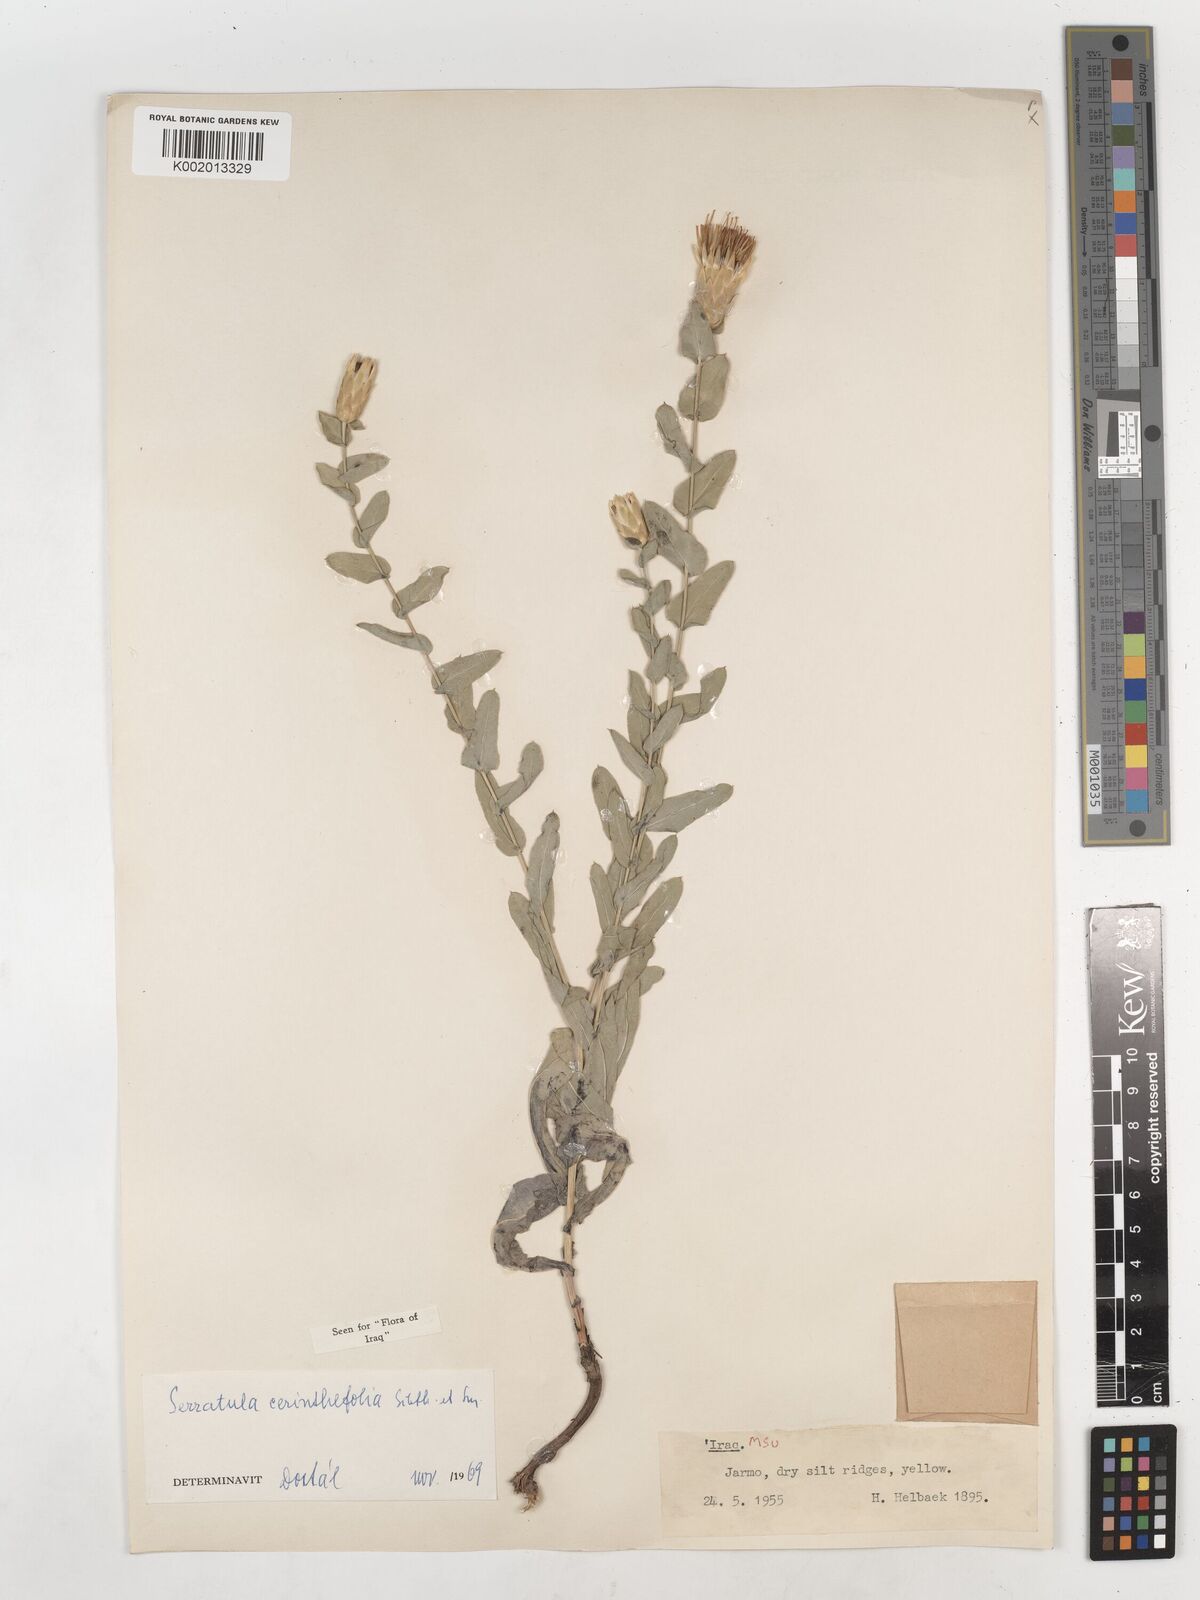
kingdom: Plantae
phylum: Tracheophyta
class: Magnoliopsida
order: Asterales
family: Asteraceae
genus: Klasea
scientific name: Klasea cerinthifolia
